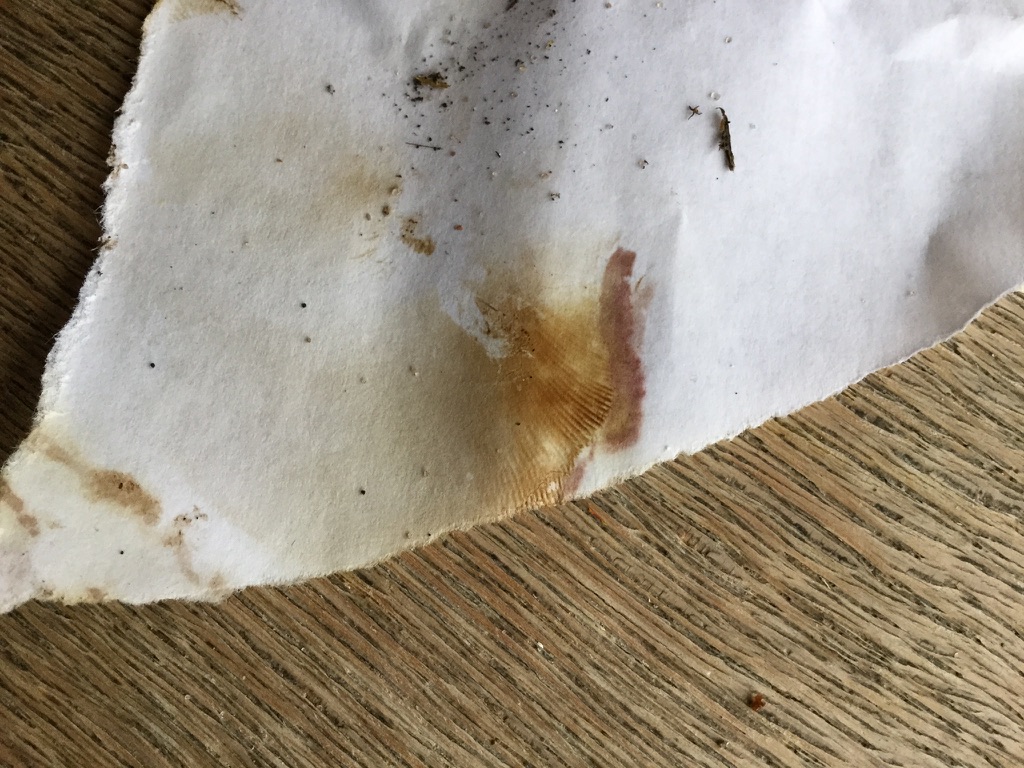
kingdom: Fungi
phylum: Basidiomycota
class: Agaricomycetes
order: Boletales
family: Paxillaceae
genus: Paxillus
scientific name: Paxillus
